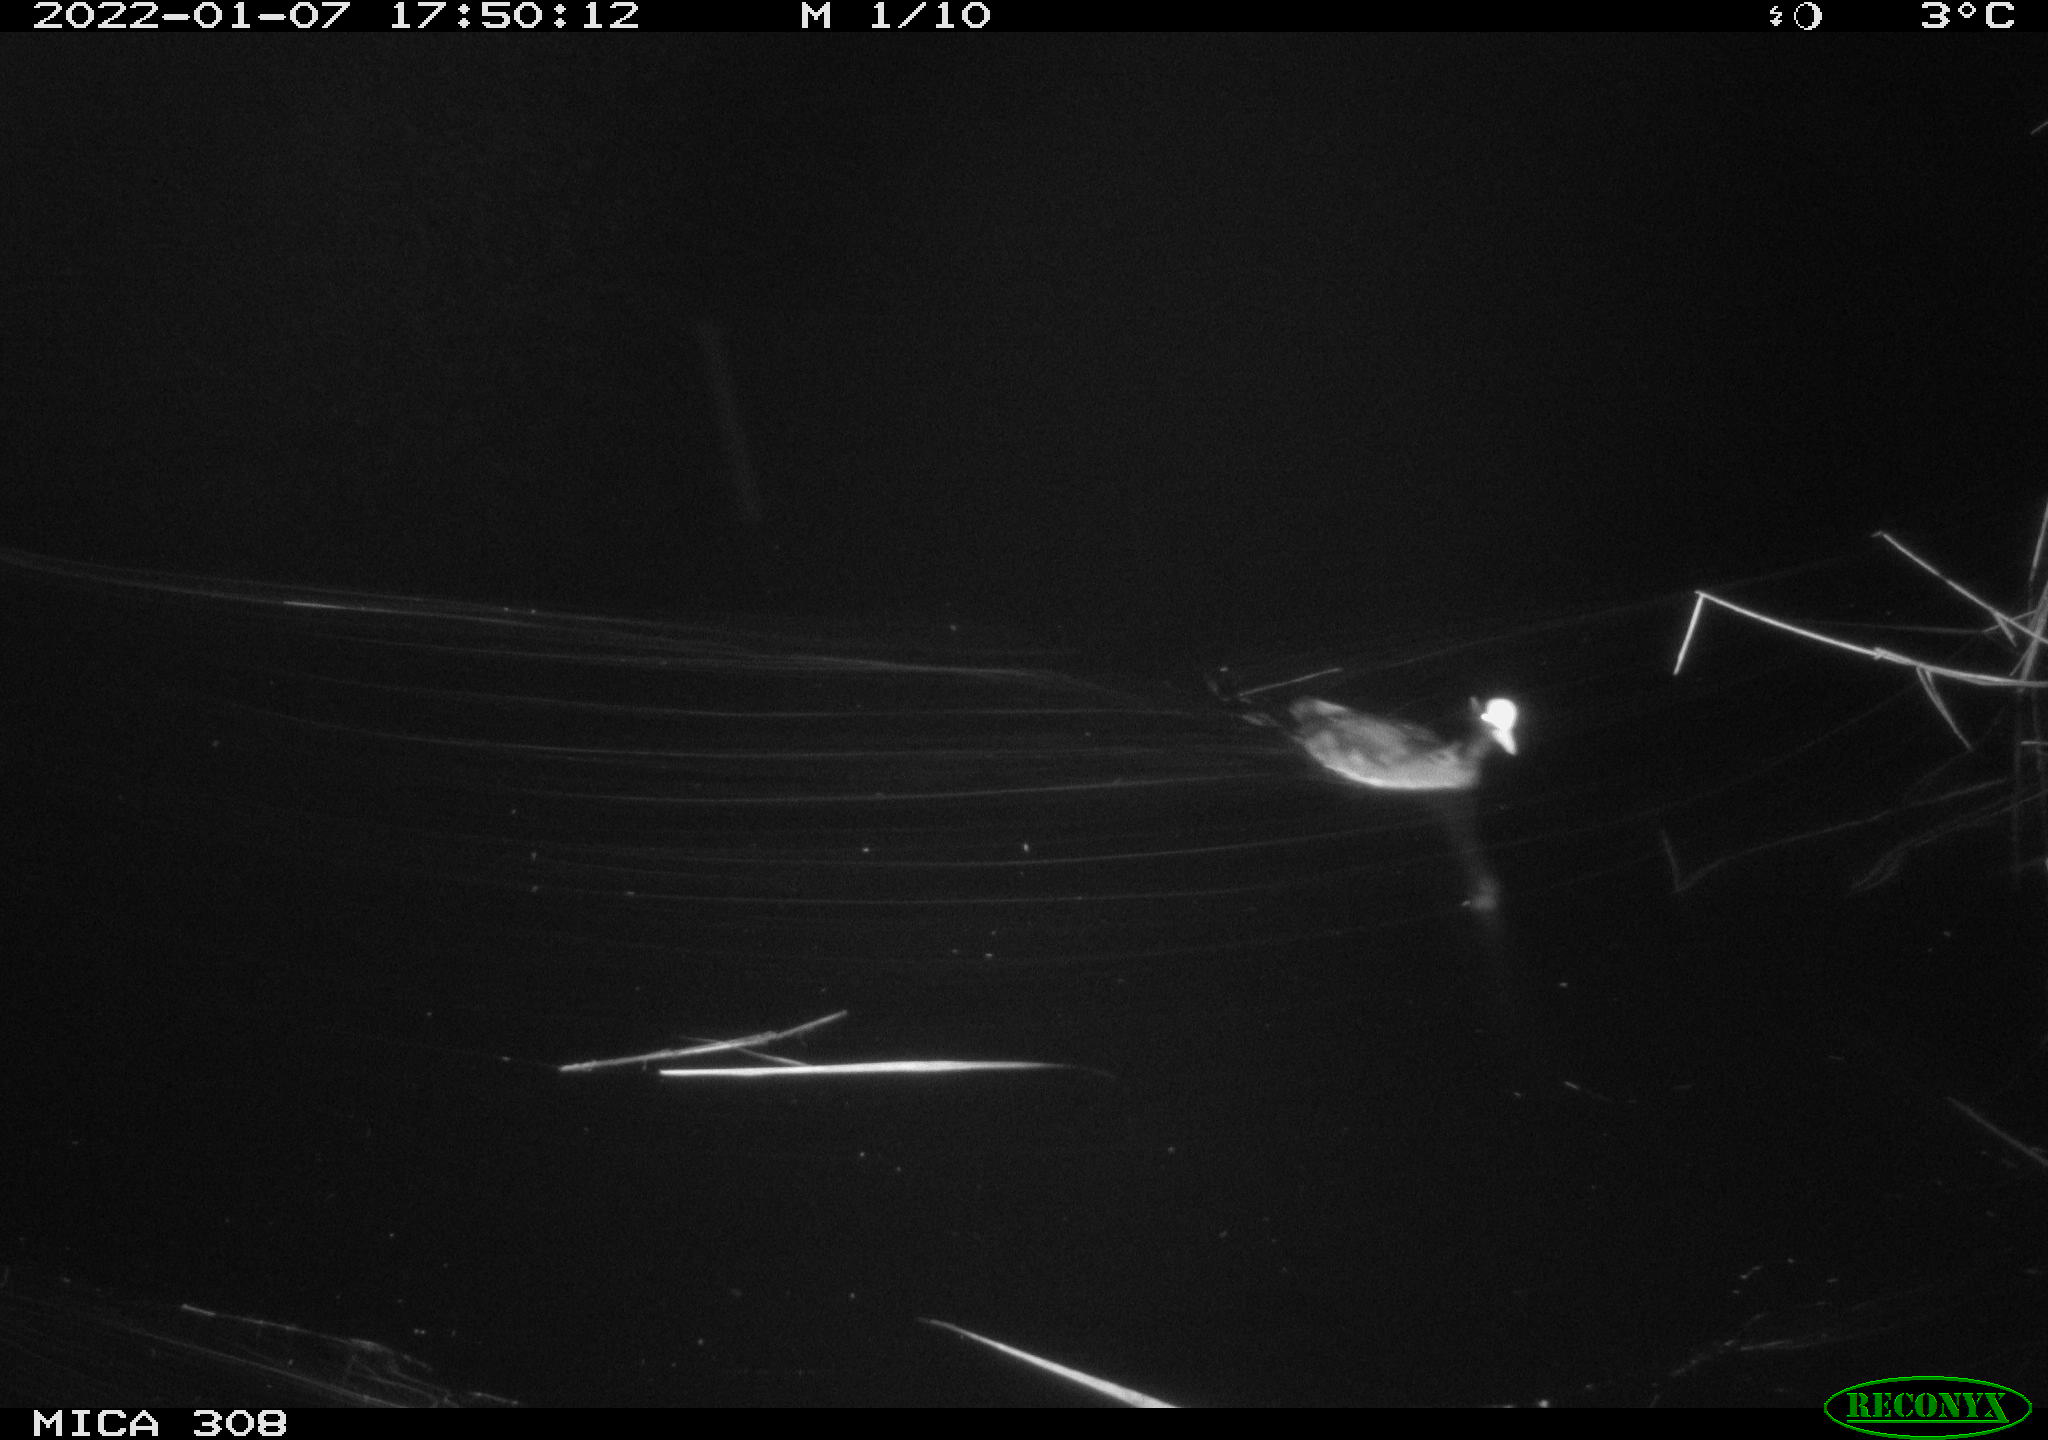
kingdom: Animalia
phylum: Chordata
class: Aves
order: Anseriformes
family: Anatidae
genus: Anas
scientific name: Anas
